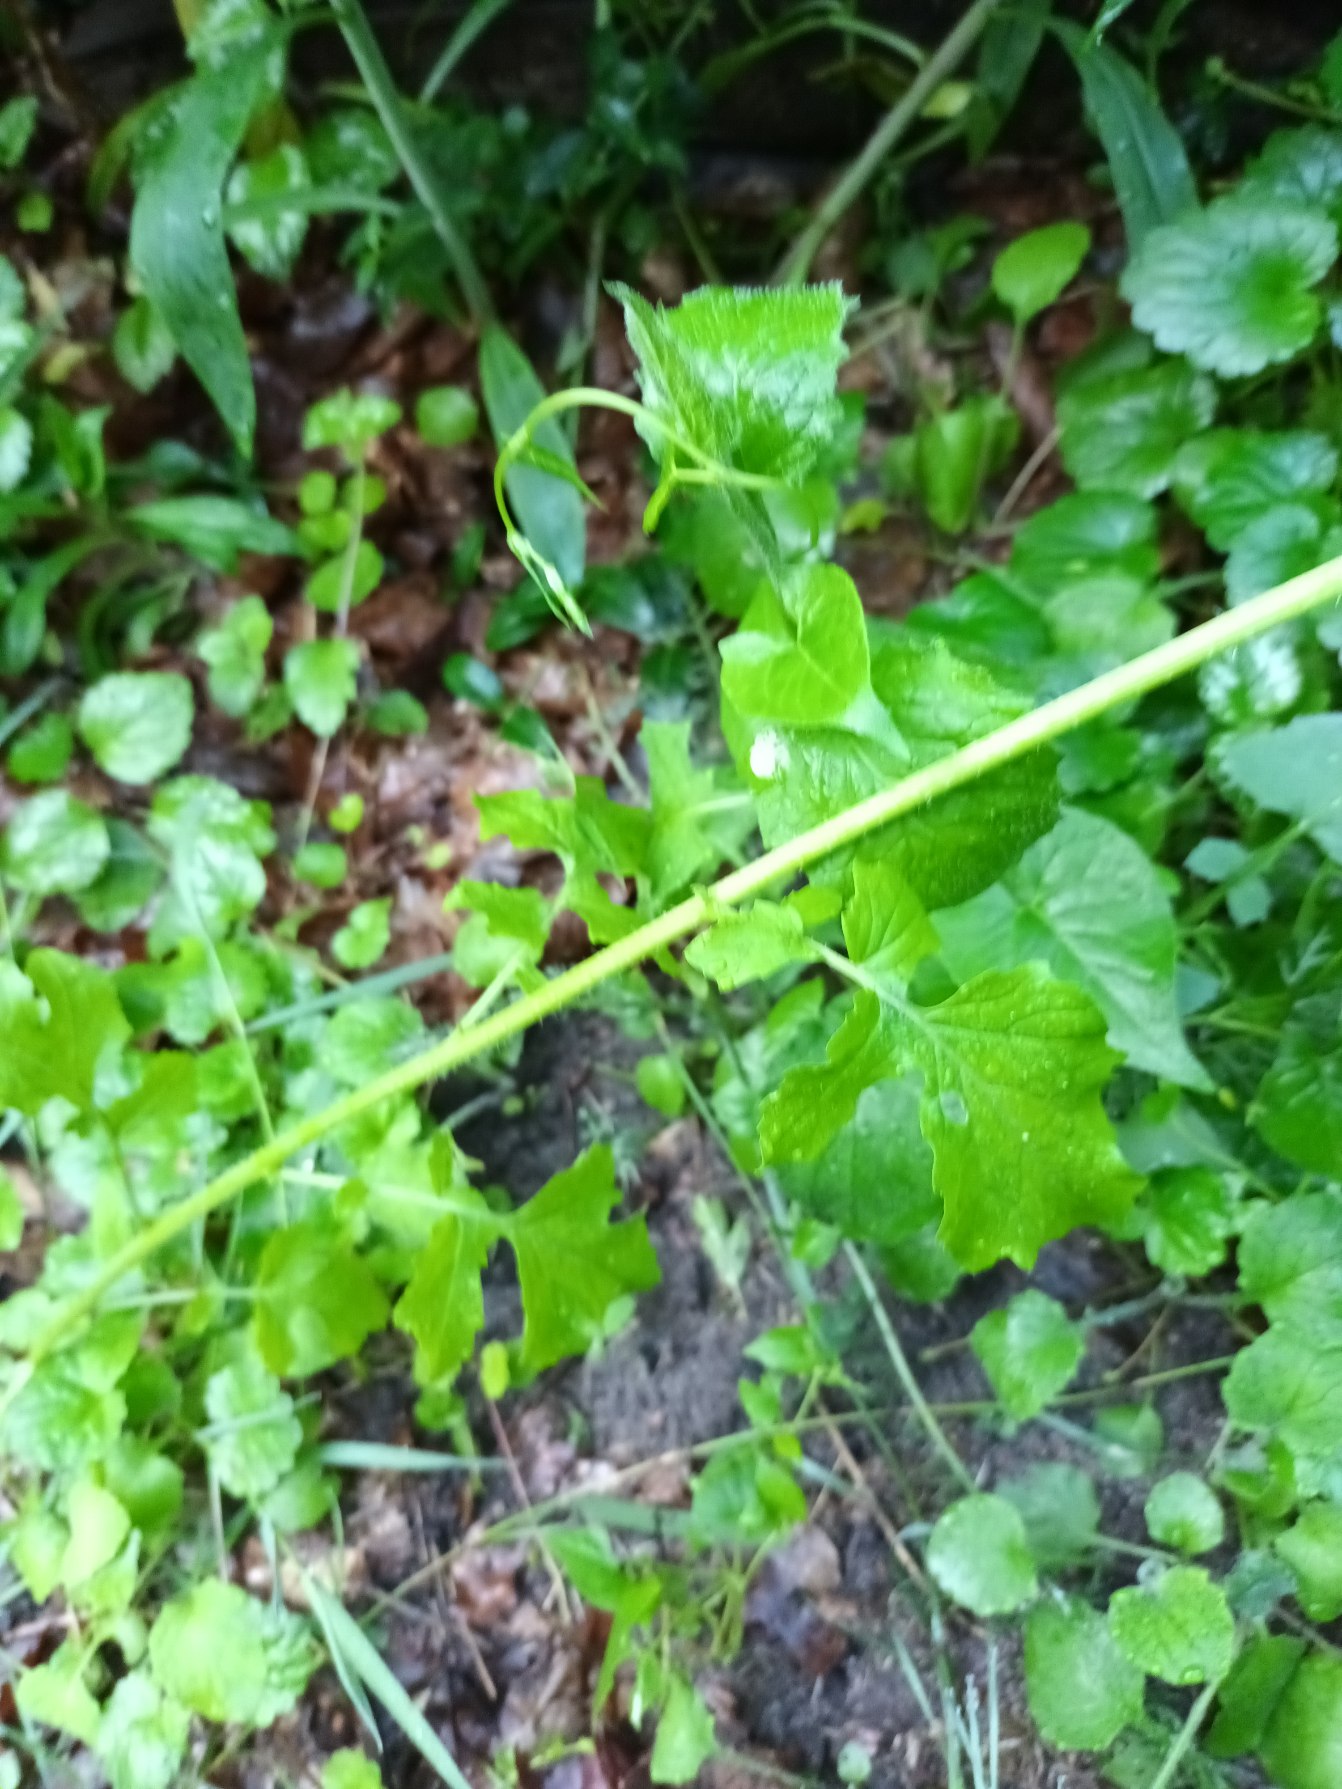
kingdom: Plantae
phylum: Tracheophyta
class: Magnoliopsida
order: Brassicales
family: Brassicaceae
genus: Sinapis
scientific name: Sinapis alba
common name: Gul sennep
